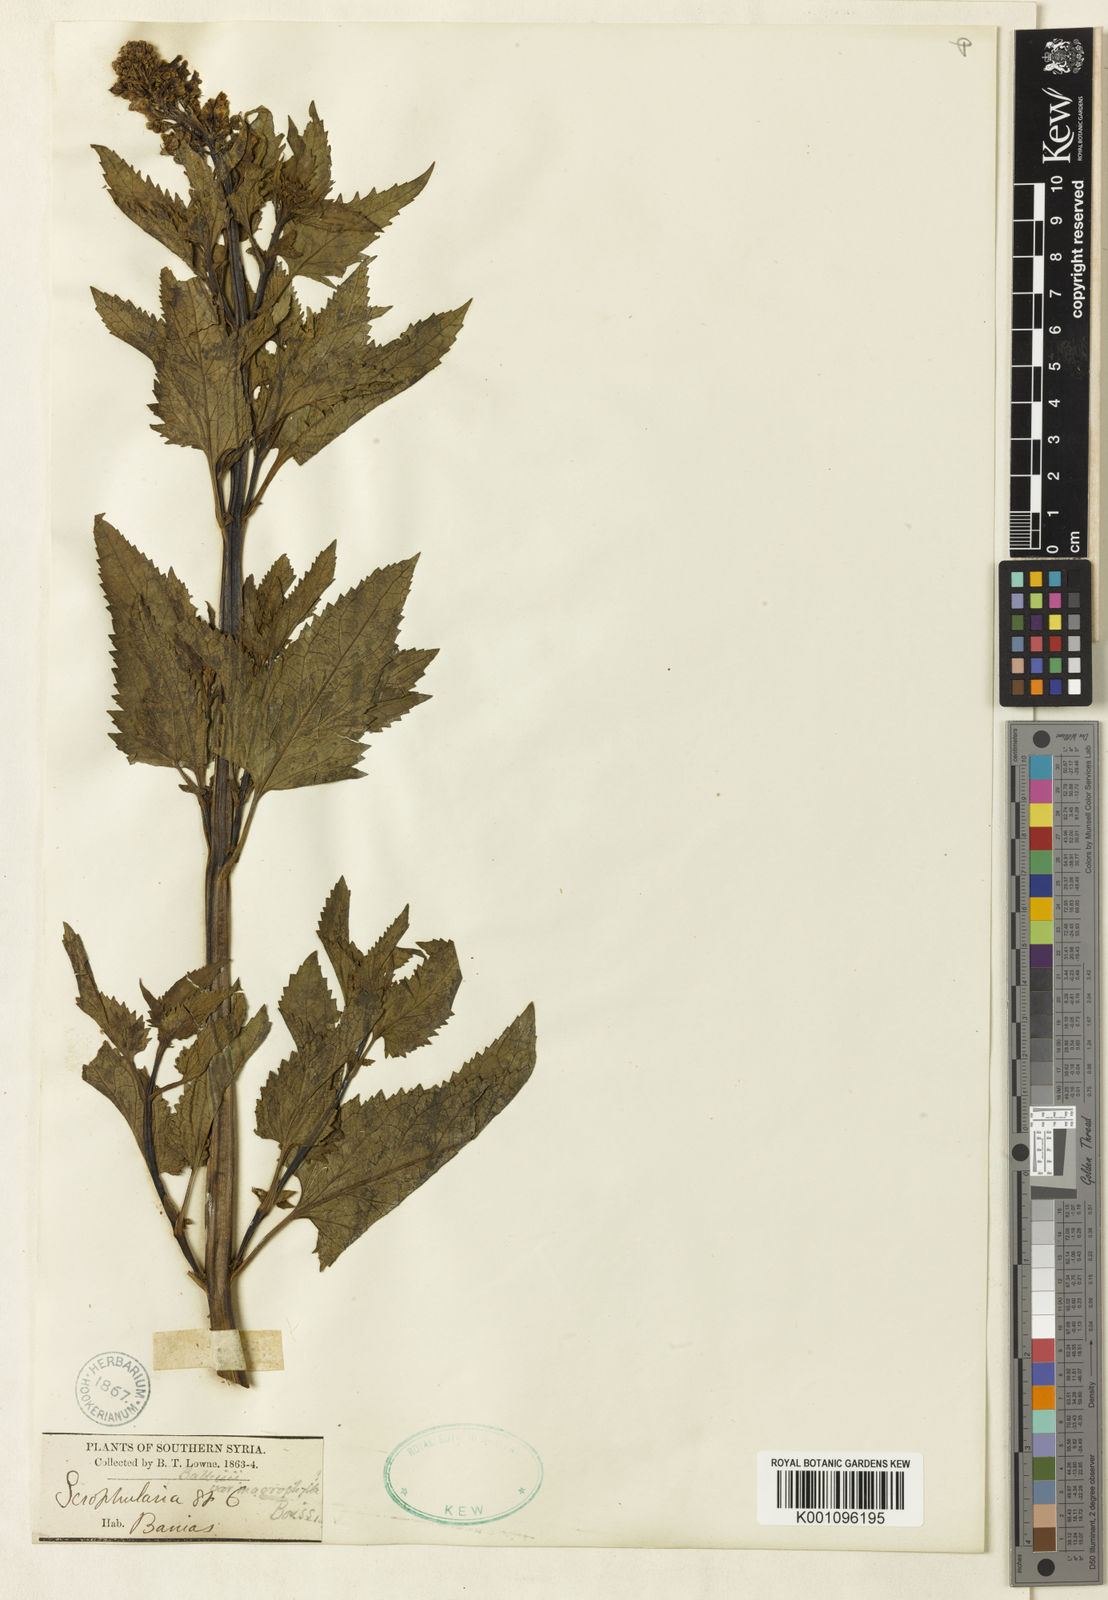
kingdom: Plantae
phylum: Tracheophyta
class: Magnoliopsida
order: Lamiales
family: Scrophulariaceae
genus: Scrophularia
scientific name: Scrophularia macrophylla
